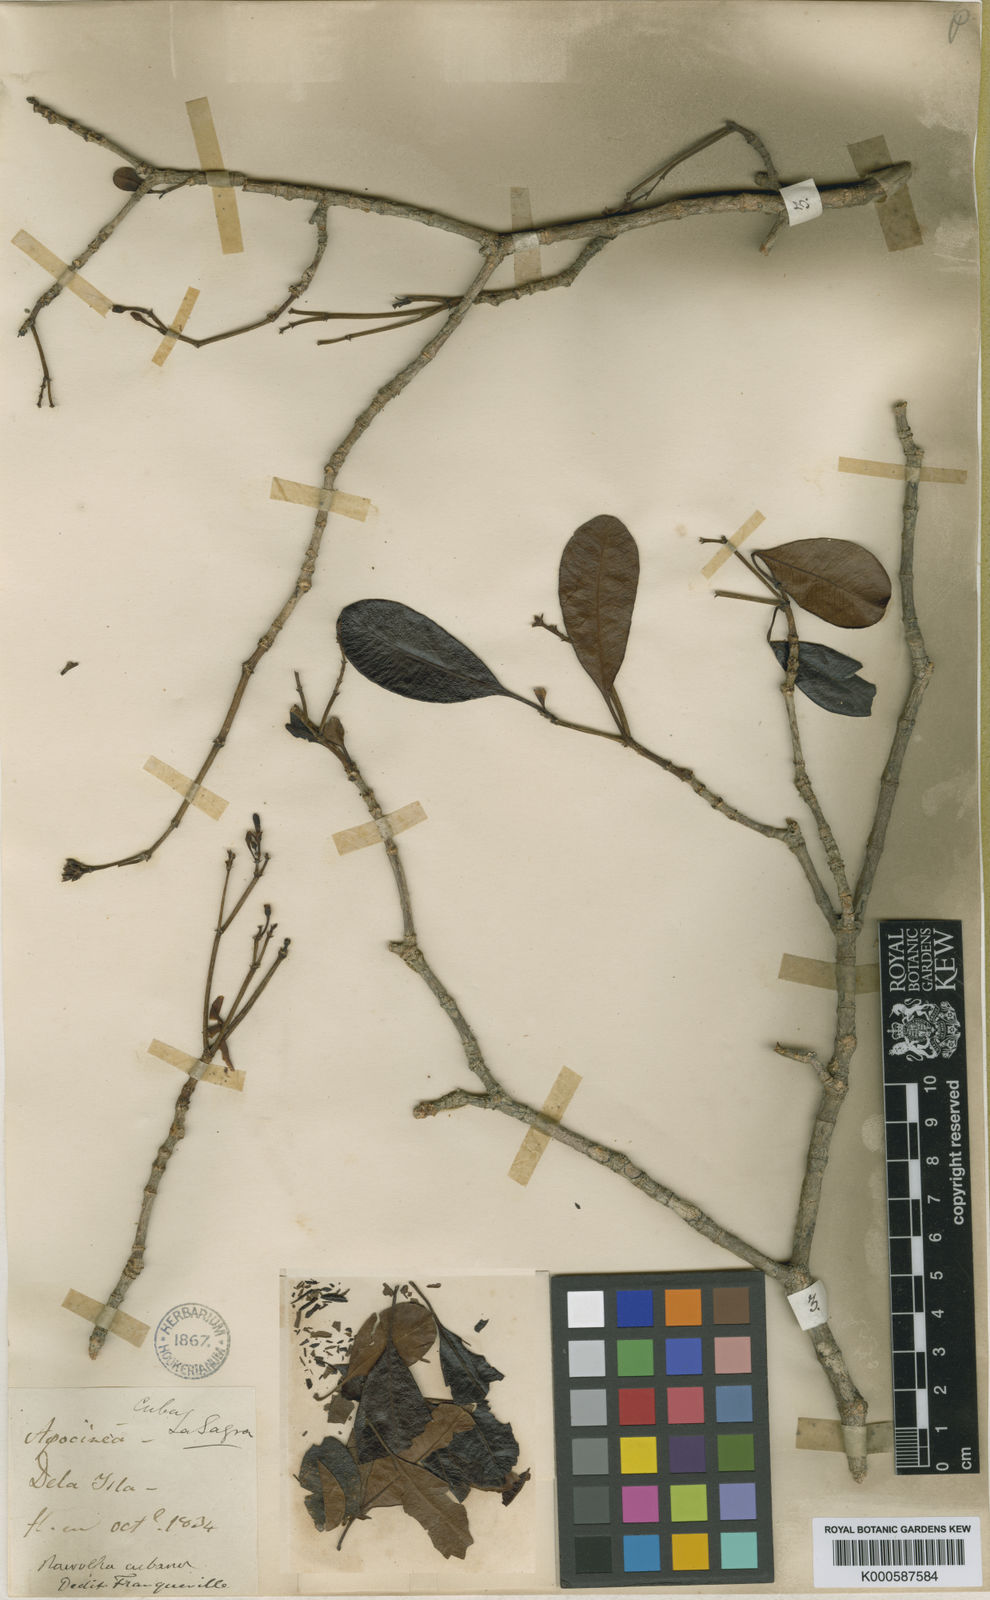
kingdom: Plantae
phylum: Tracheophyta
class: Magnoliopsida
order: Gentianales
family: Apocynaceae
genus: Rauvolfia
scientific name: Rauvolfia cubana
